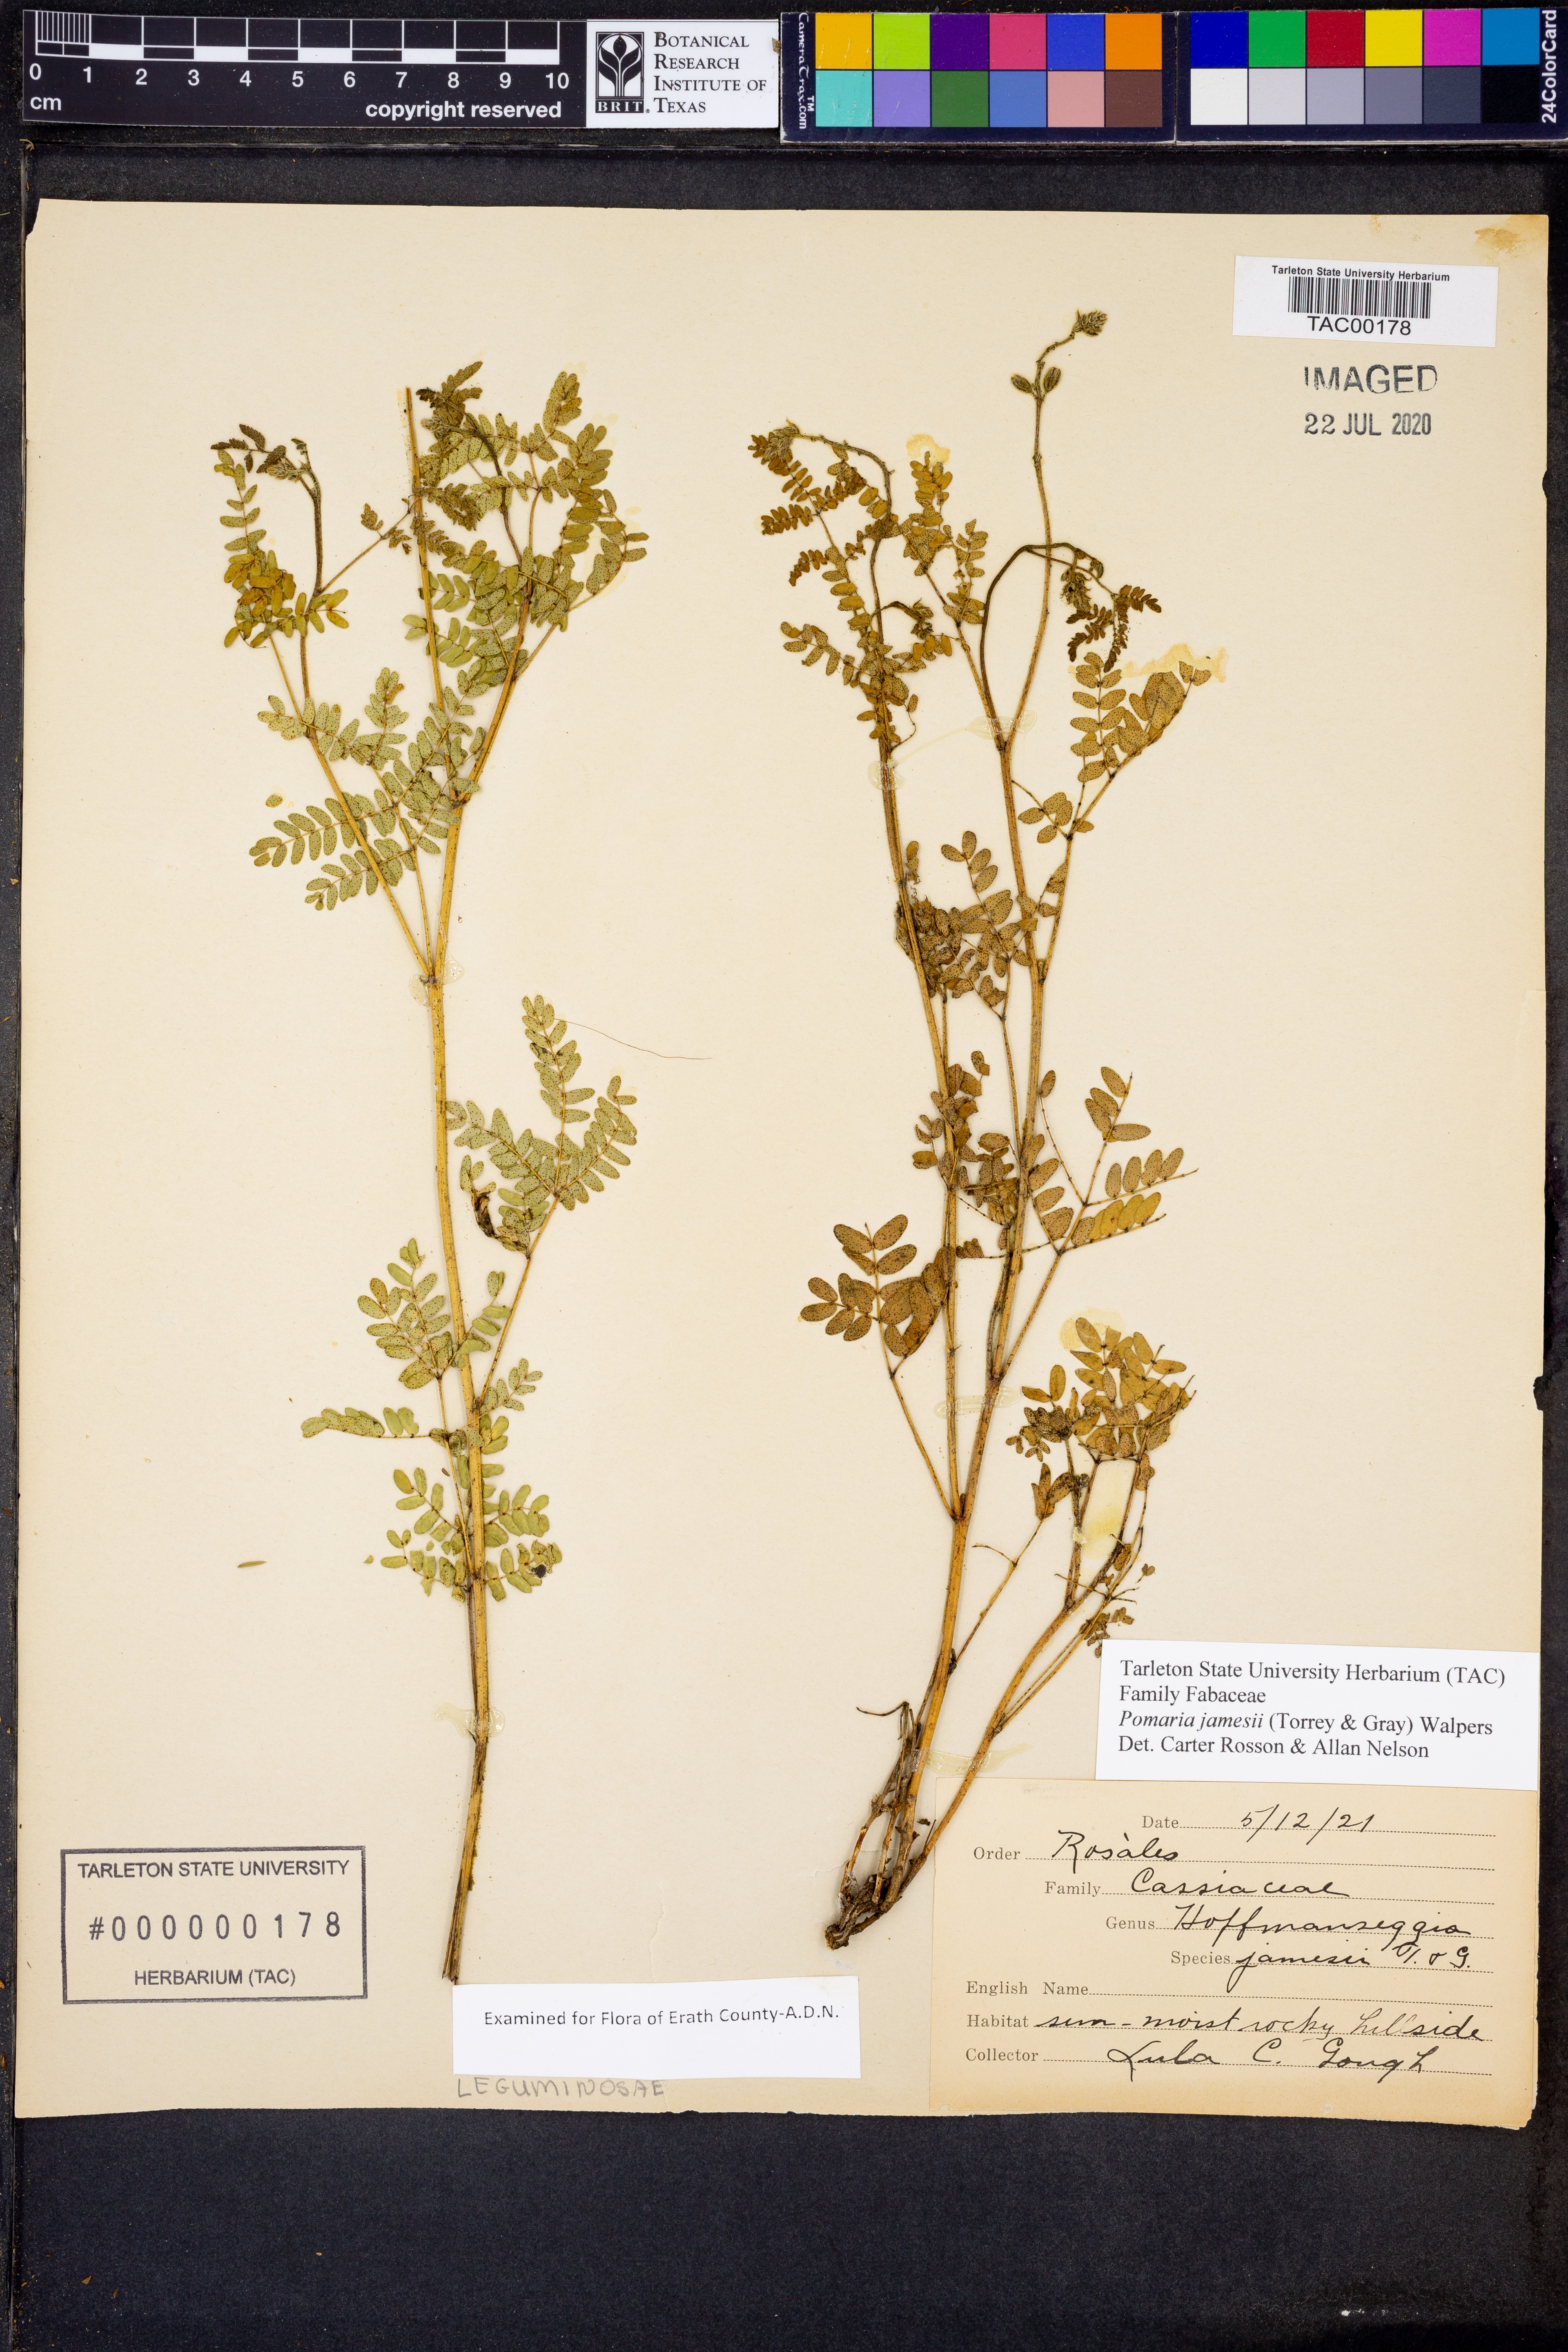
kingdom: Plantae
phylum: Tracheophyta
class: Magnoliopsida
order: Fabales
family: Fabaceae
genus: Pomaria
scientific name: Pomaria jamesii
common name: James' caesalpinia
